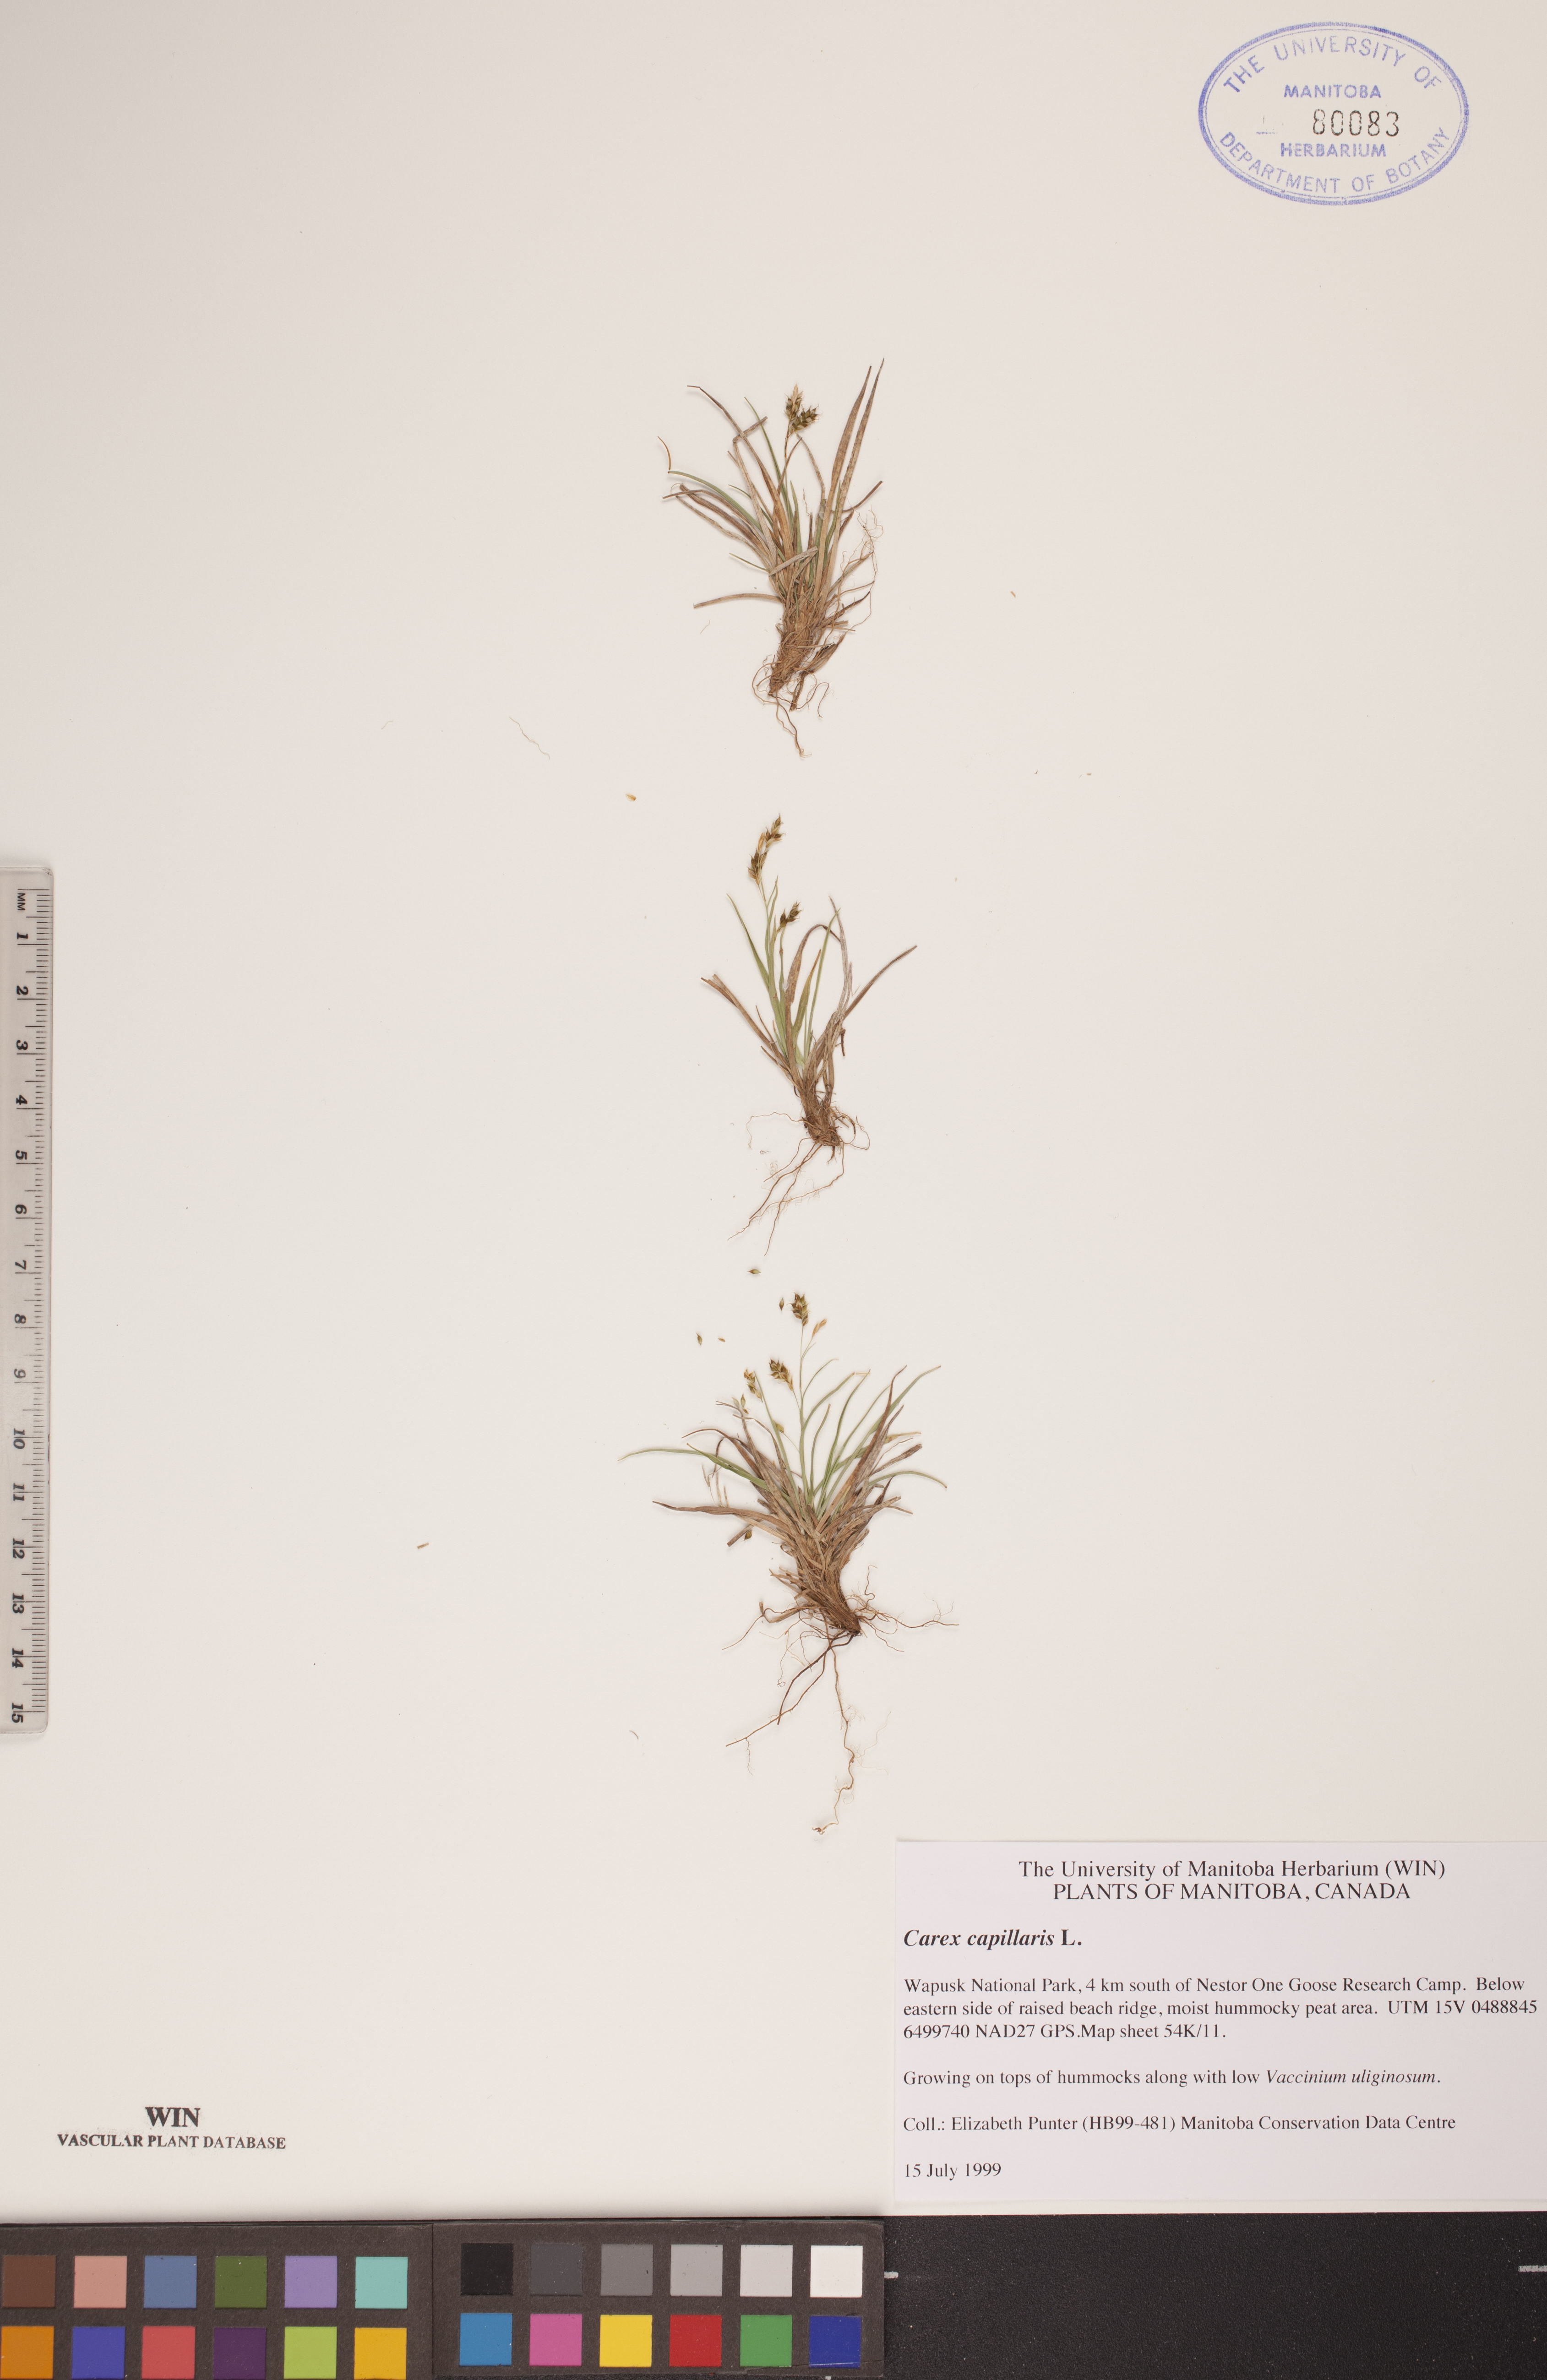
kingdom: Plantae
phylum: Tracheophyta
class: Liliopsida
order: Poales
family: Cyperaceae
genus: Carex
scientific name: Carex capillaris
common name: Hair sedge
